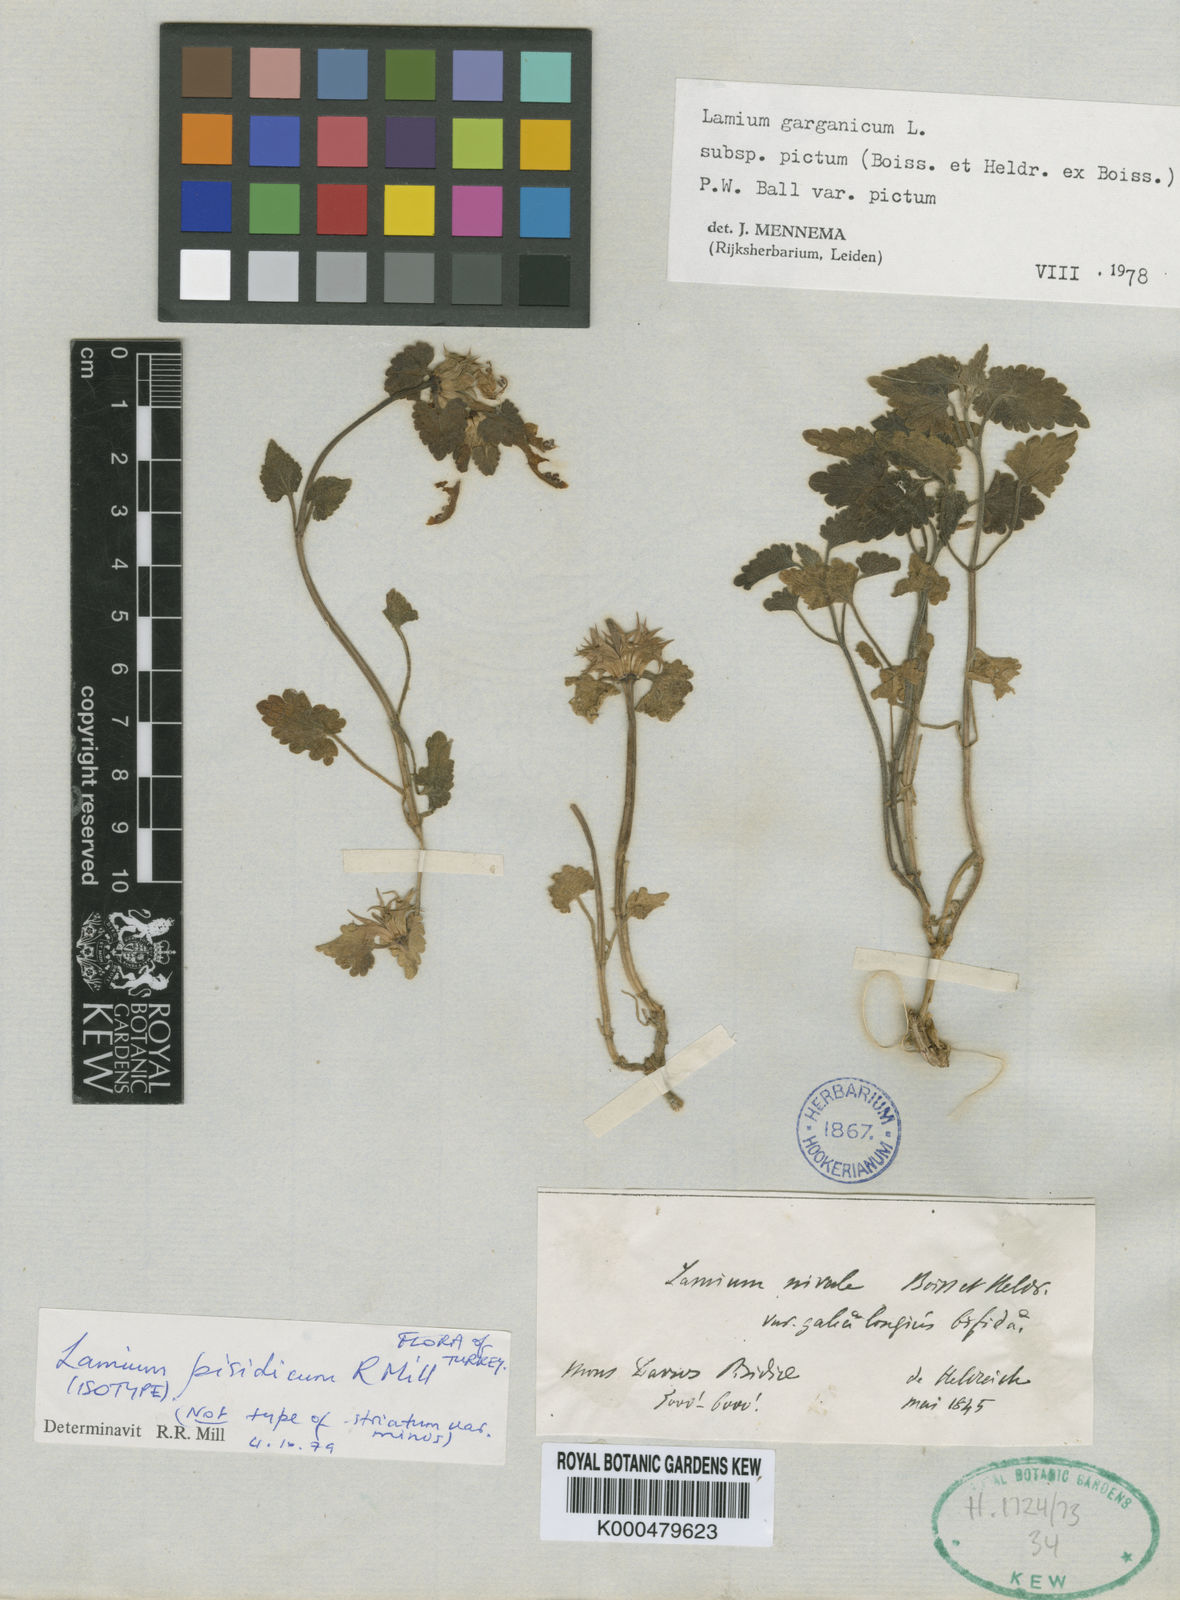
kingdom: Plantae
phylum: Tracheophyta
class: Magnoliopsida
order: Lamiales
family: Lamiaceae
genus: Lamium
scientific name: Lamium garganicum
